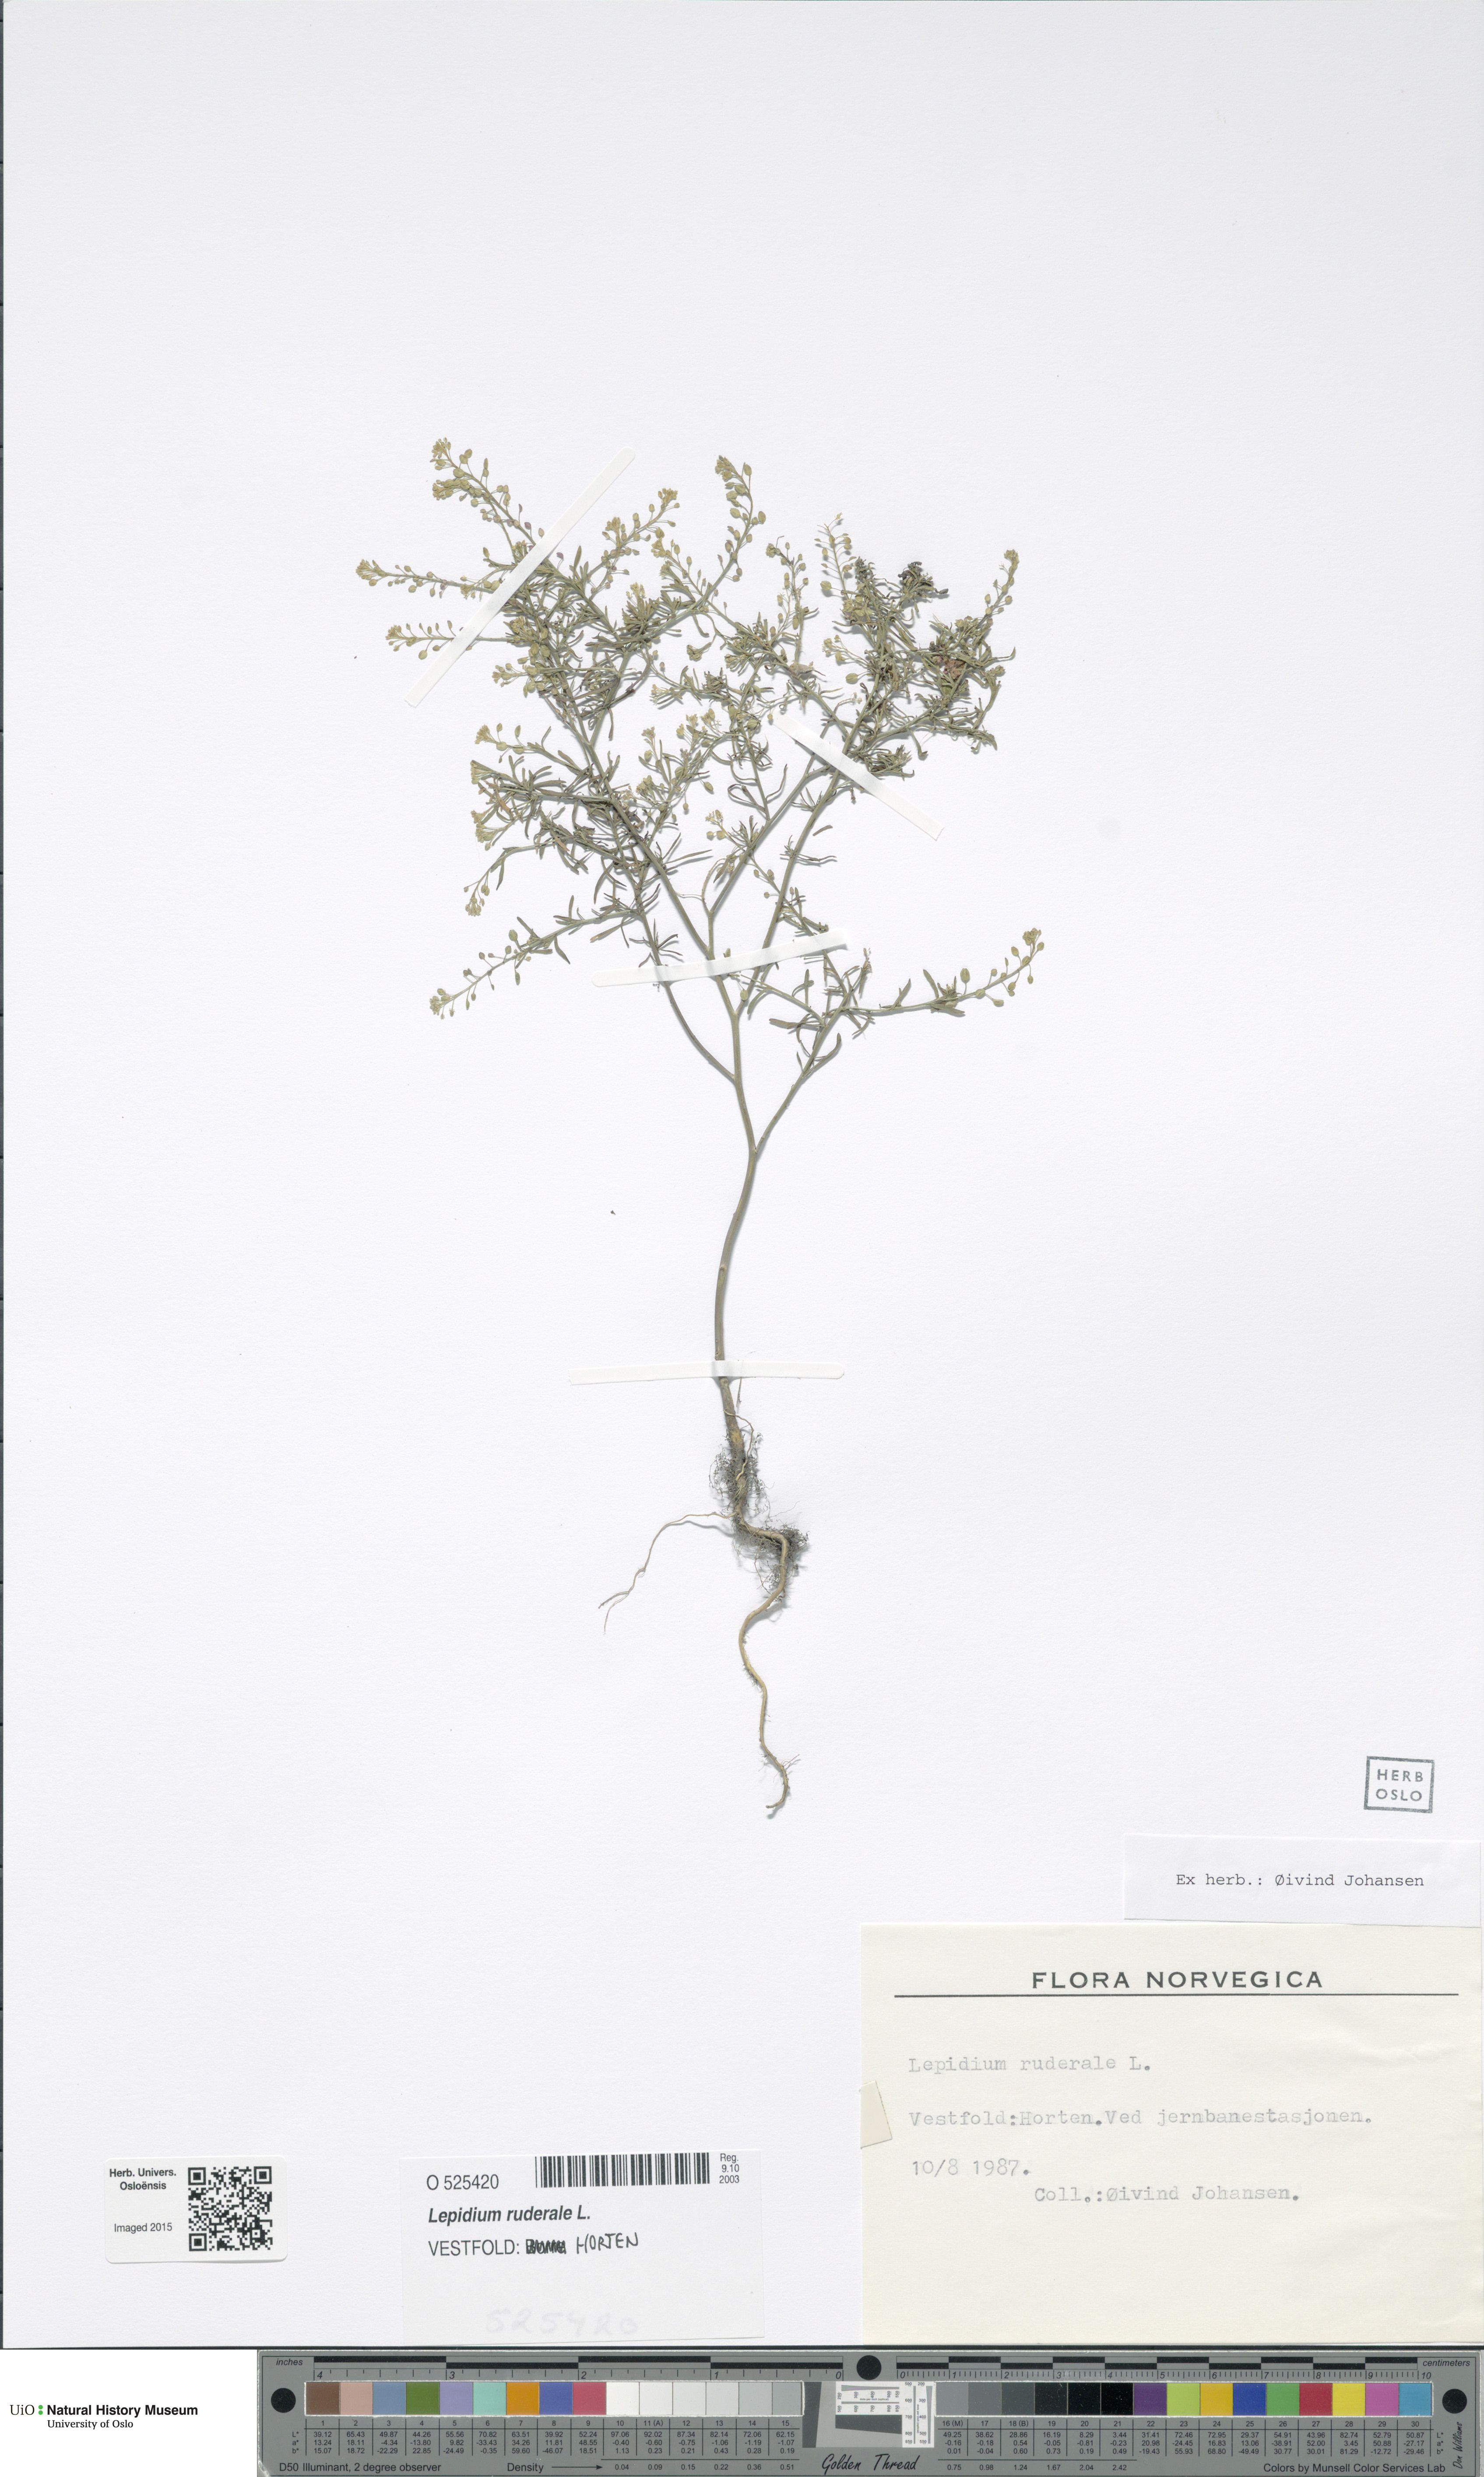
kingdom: Plantae
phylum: Tracheophyta
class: Magnoliopsida
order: Brassicales
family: Brassicaceae
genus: Lepidium
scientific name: Lepidium ruderale
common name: Narrow-leaved pepperwort
